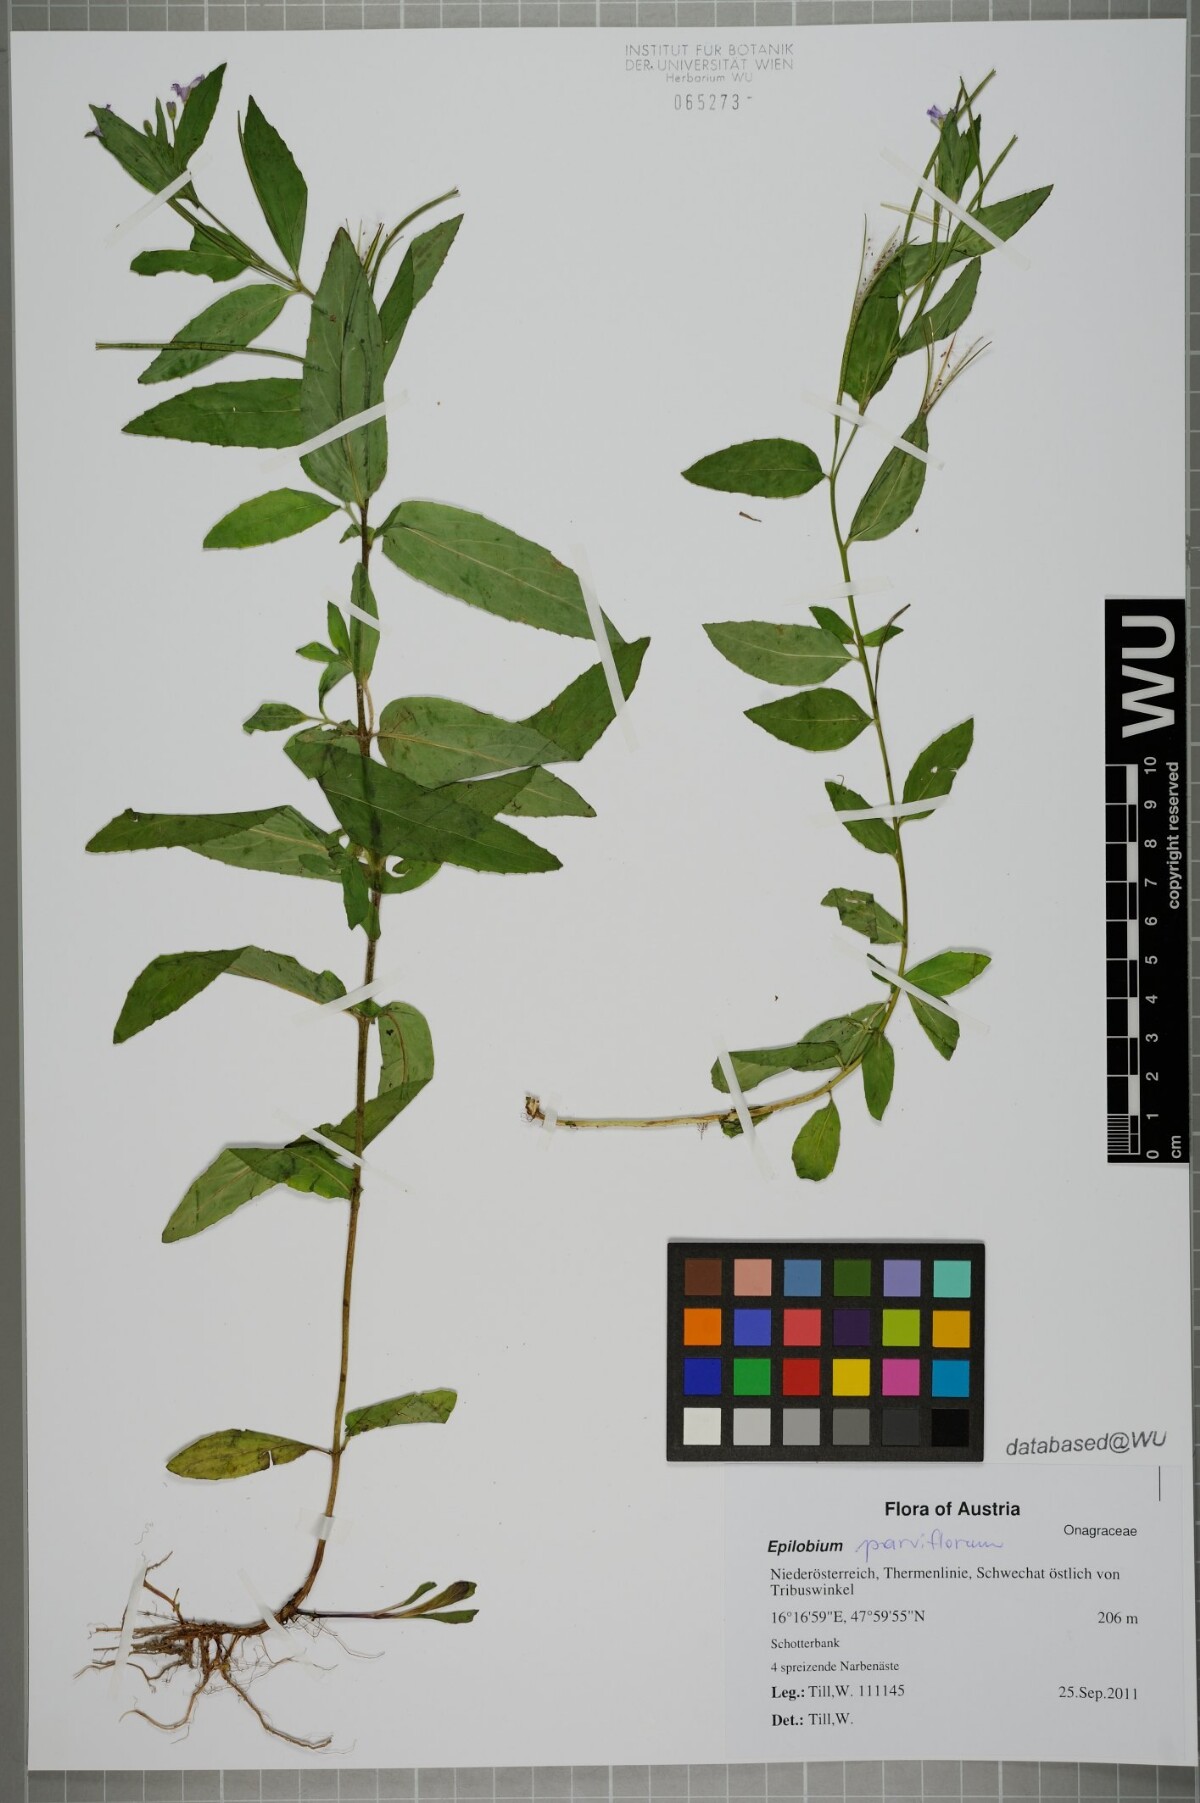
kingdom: Plantae
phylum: Tracheophyta
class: Magnoliopsida
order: Myrtales
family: Onagraceae
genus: Epilobium
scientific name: Epilobium parviflorum
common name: Hoary willowherb
